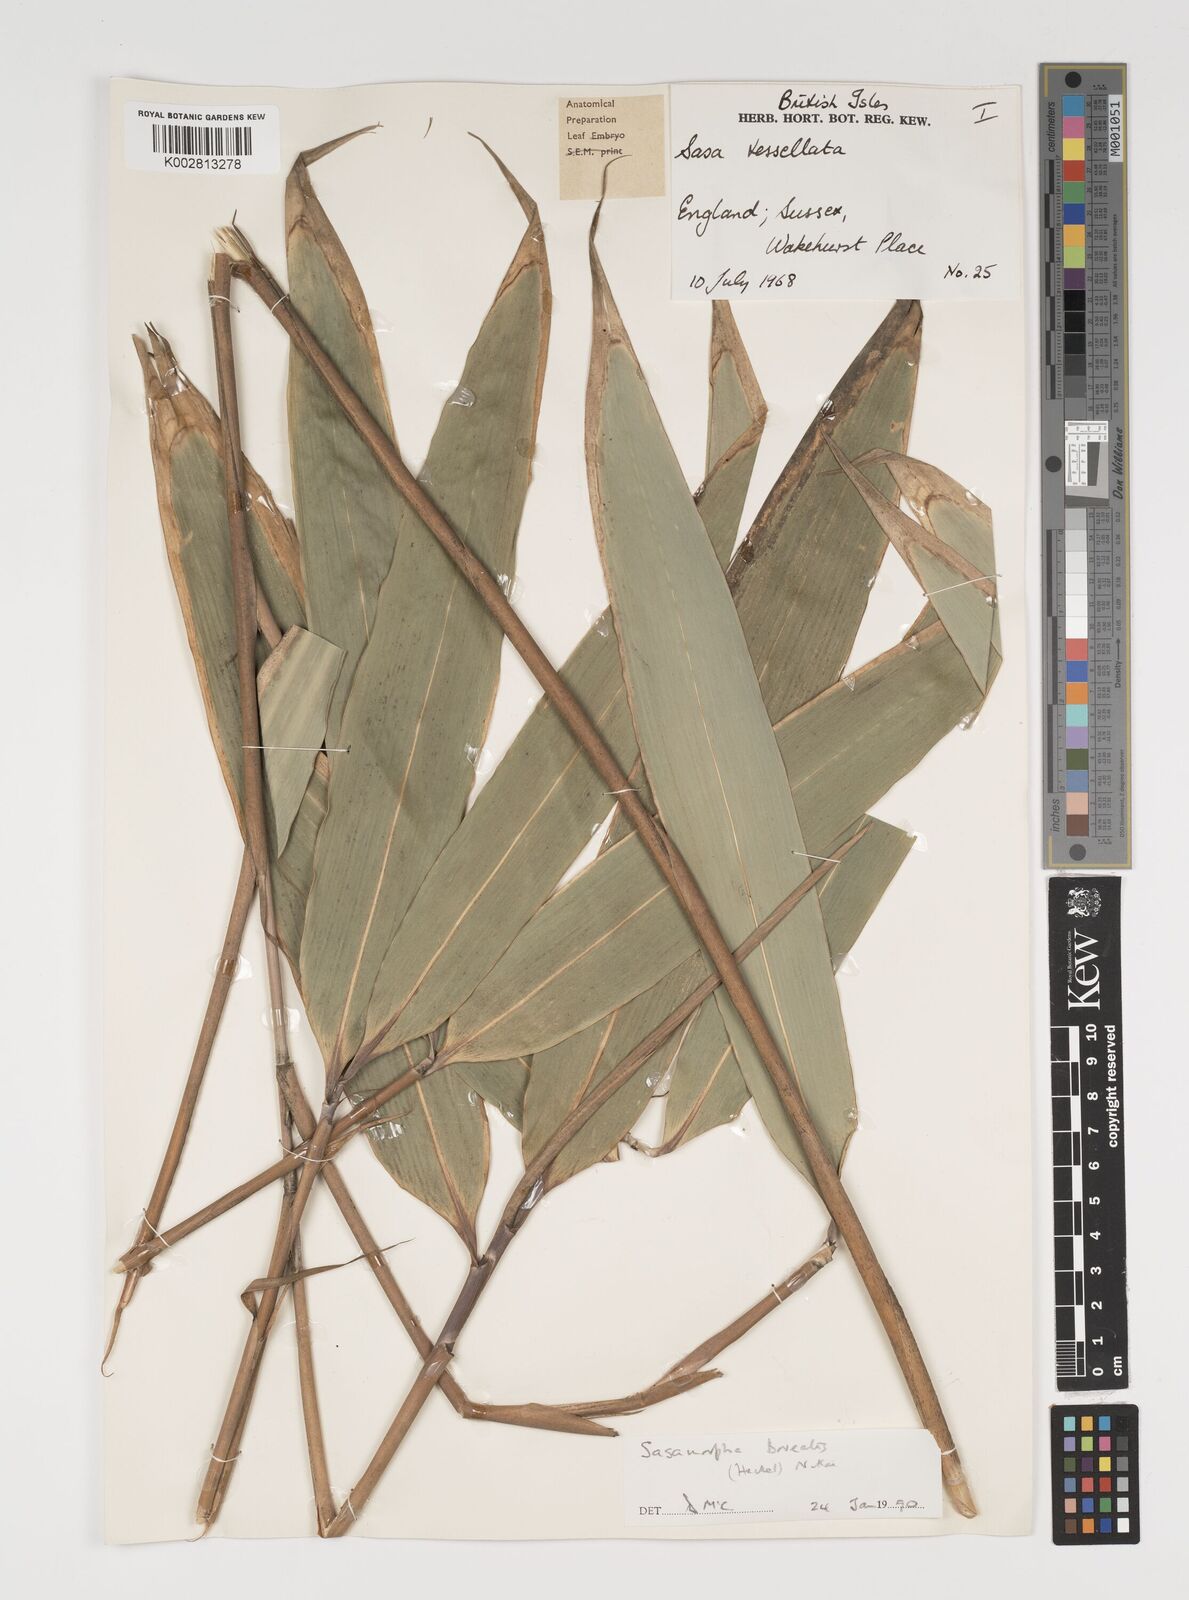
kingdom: Plantae
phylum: Tracheophyta
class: Liliopsida
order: Poales
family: Poaceae
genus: Sasamorpha
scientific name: Sasamorpha borealis
